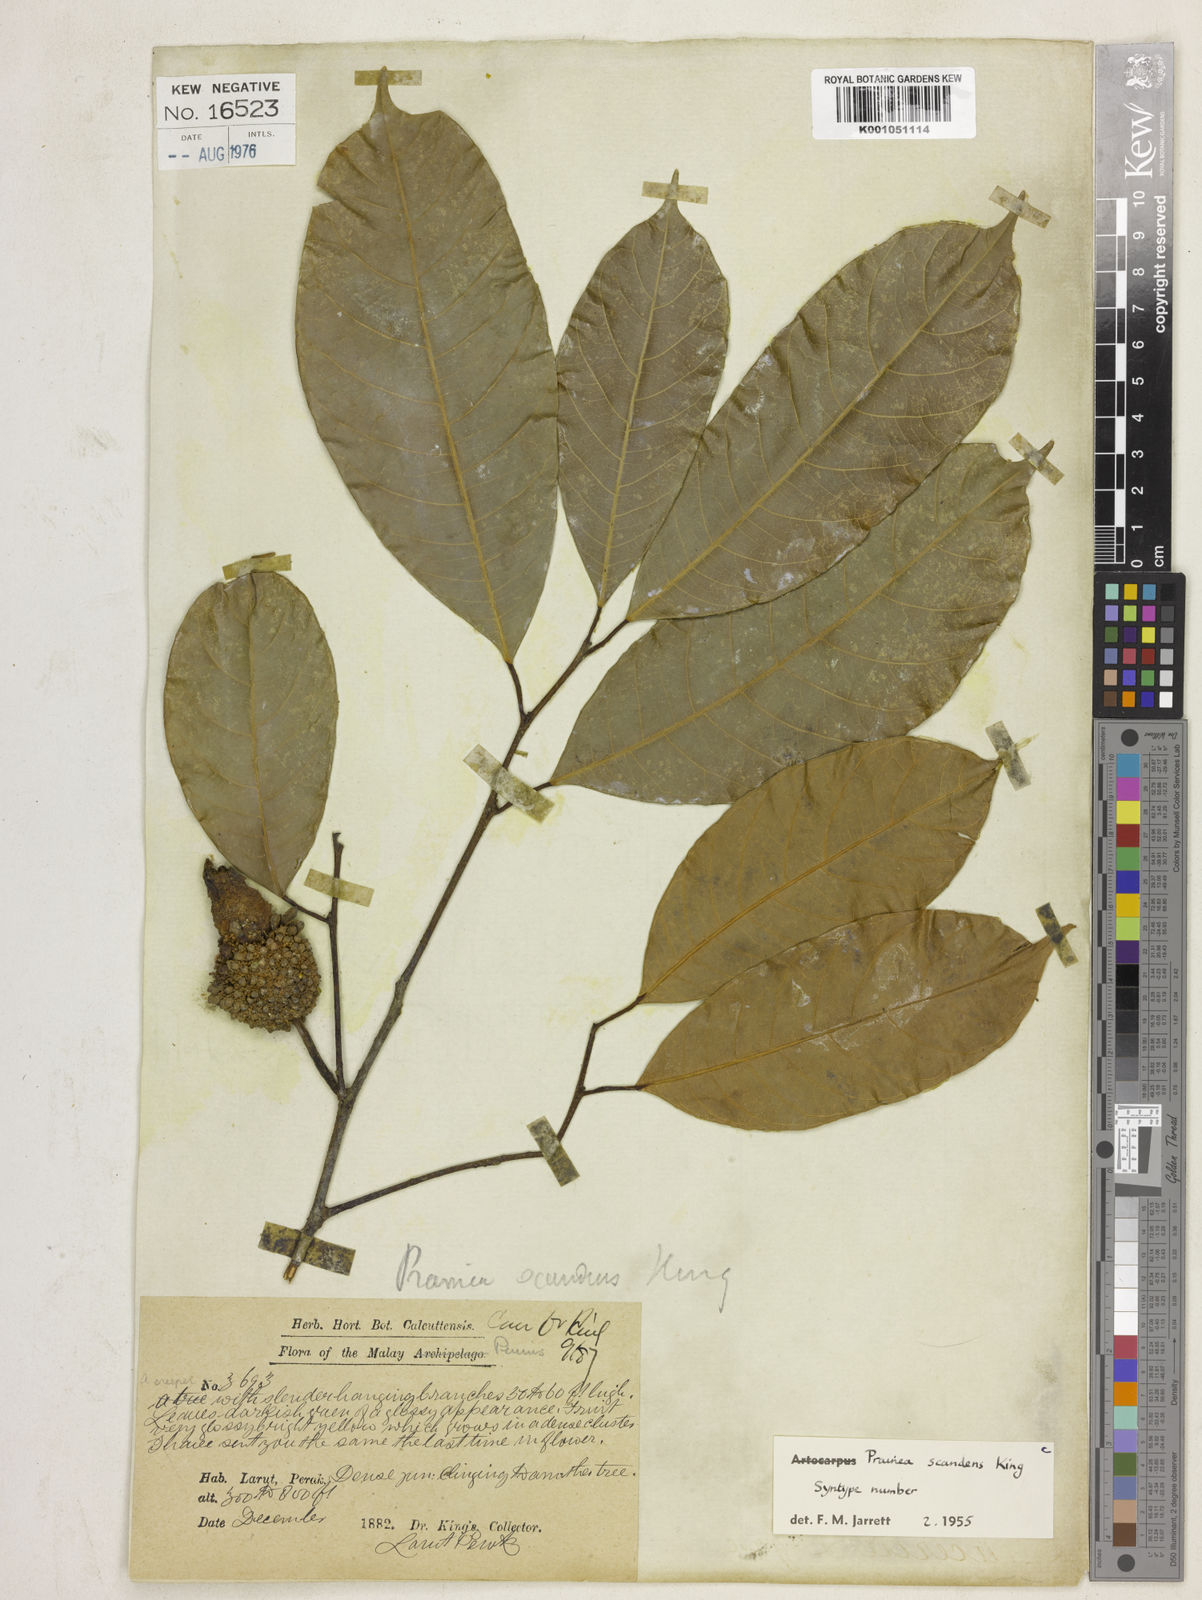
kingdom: Plantae
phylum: Tracheophyta
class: Magnoliopsida
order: Rosales
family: Moraceae
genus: Prainea
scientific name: Prainea scandens
